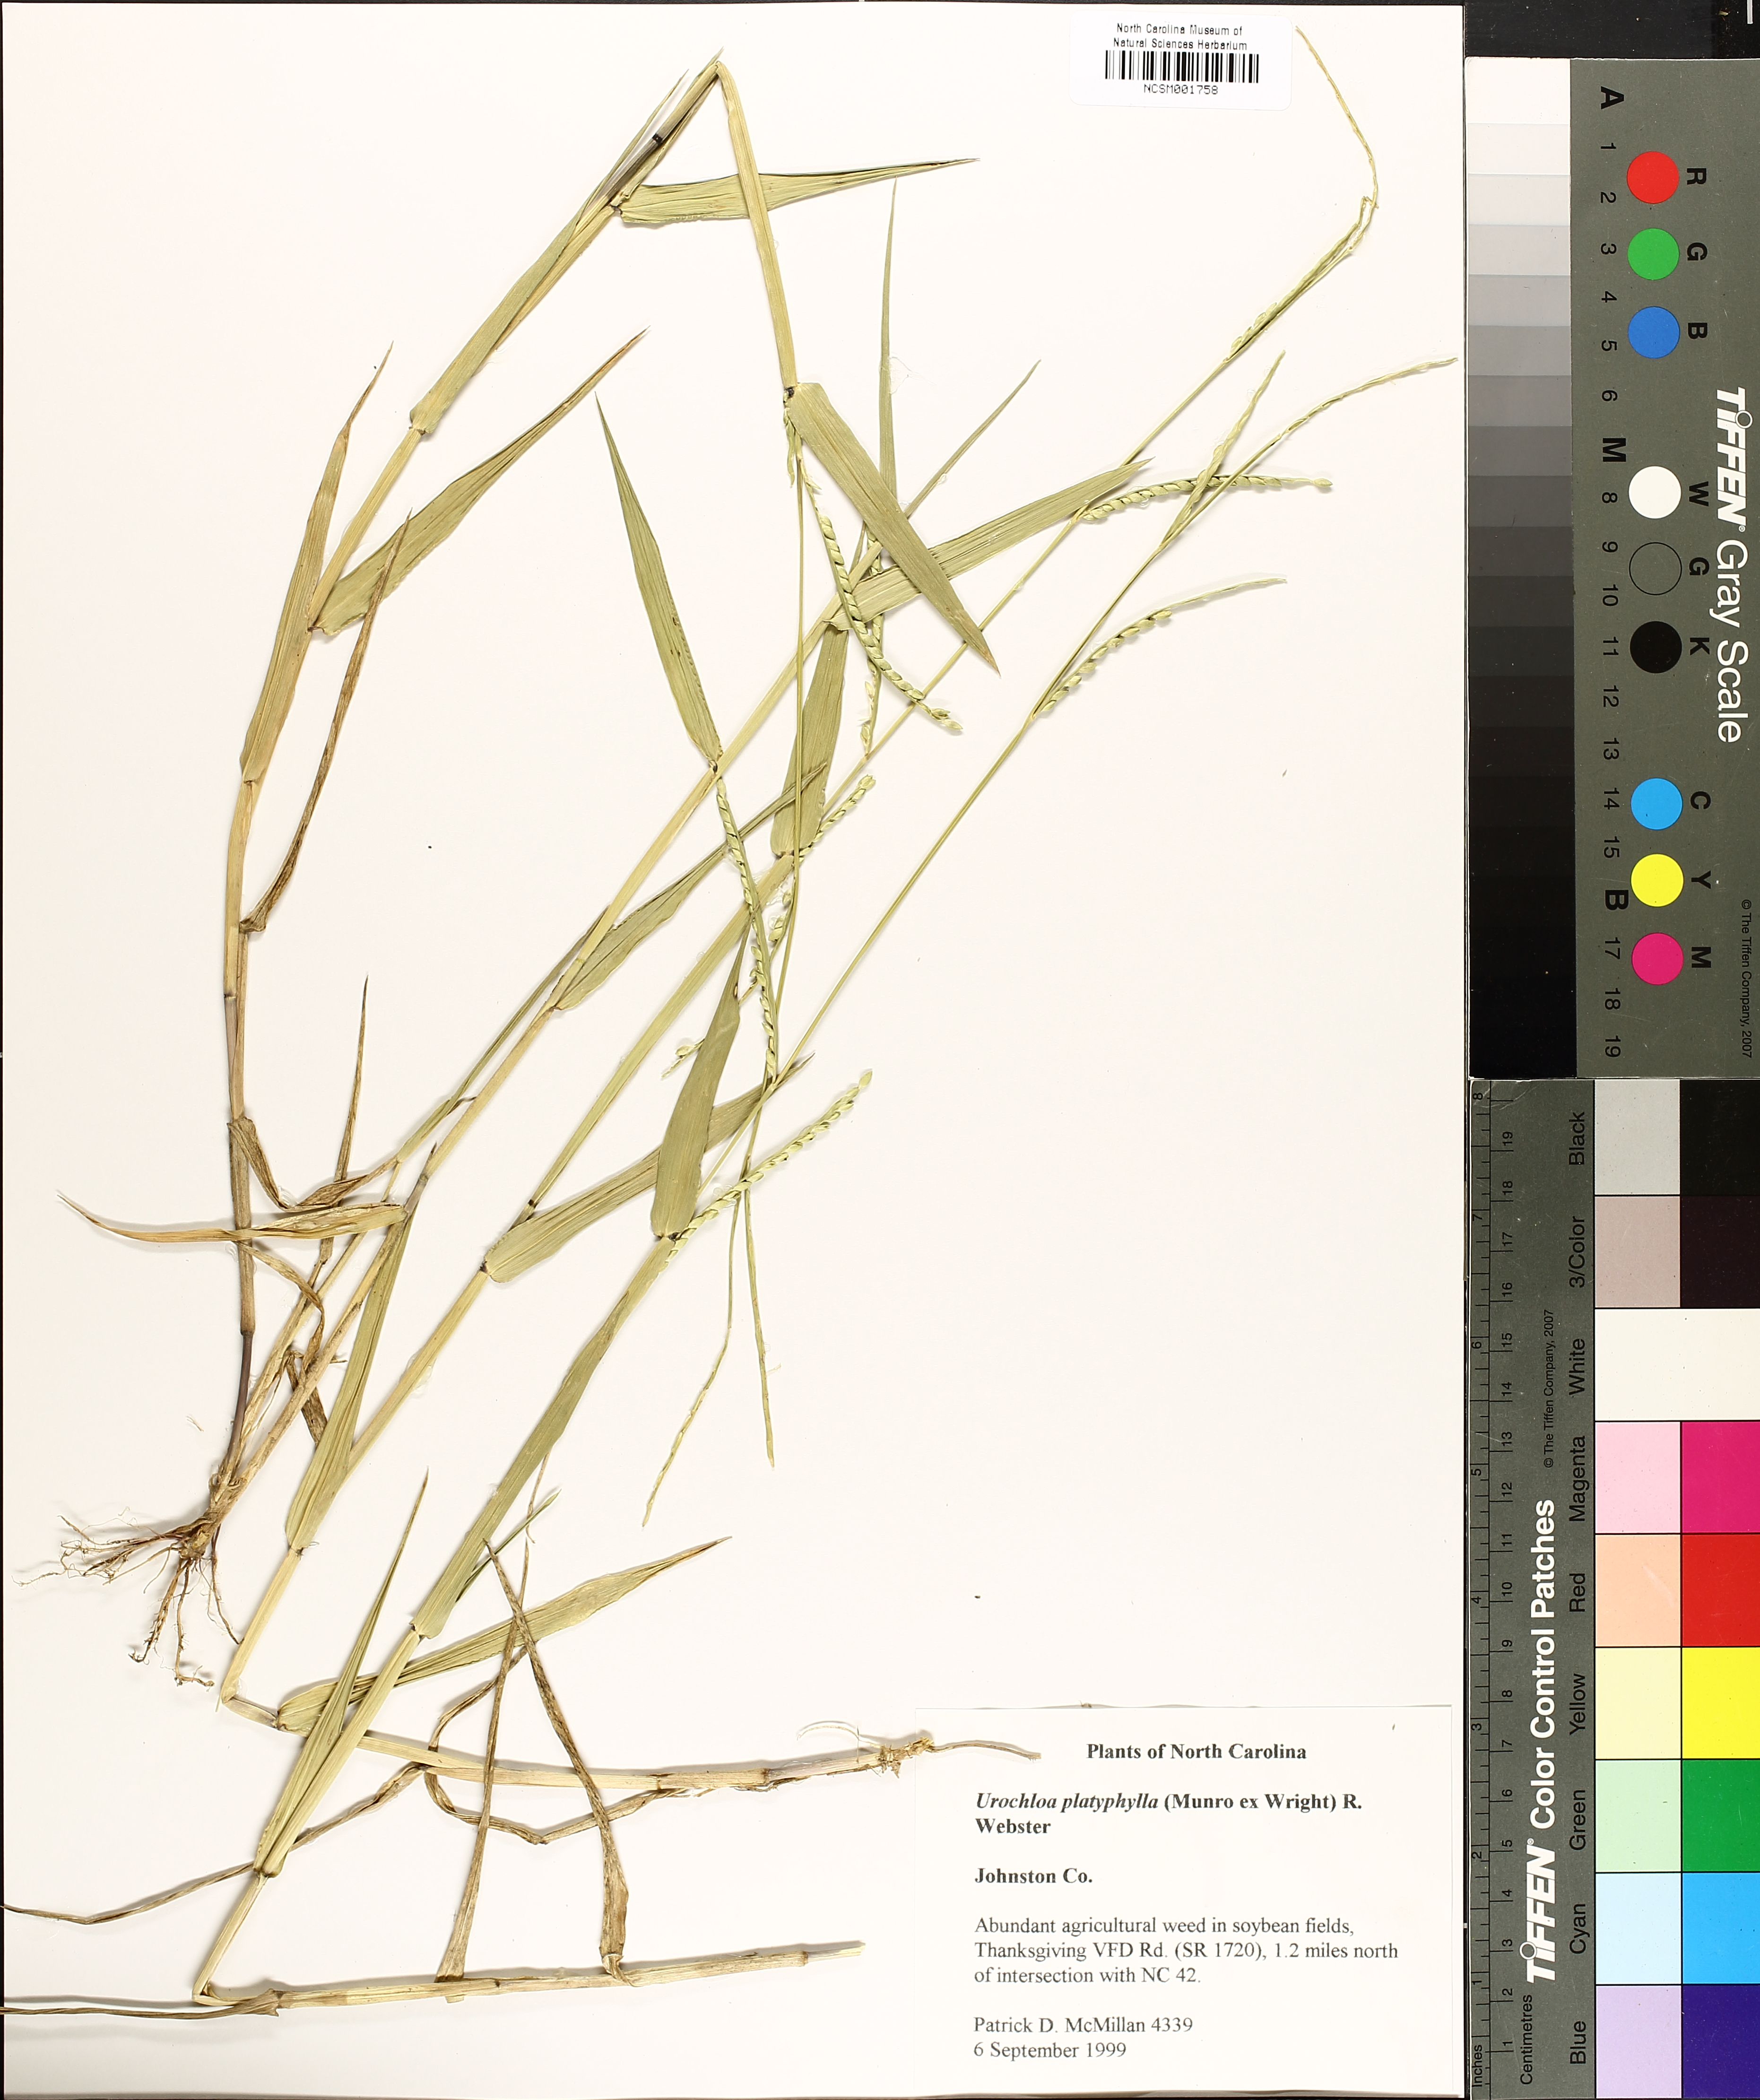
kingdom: Plantae
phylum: Tracheophyta
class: Liliopsida
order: Poales
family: Poaceae
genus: Urochloa
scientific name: Urochloa platyphylla
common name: White para grass
